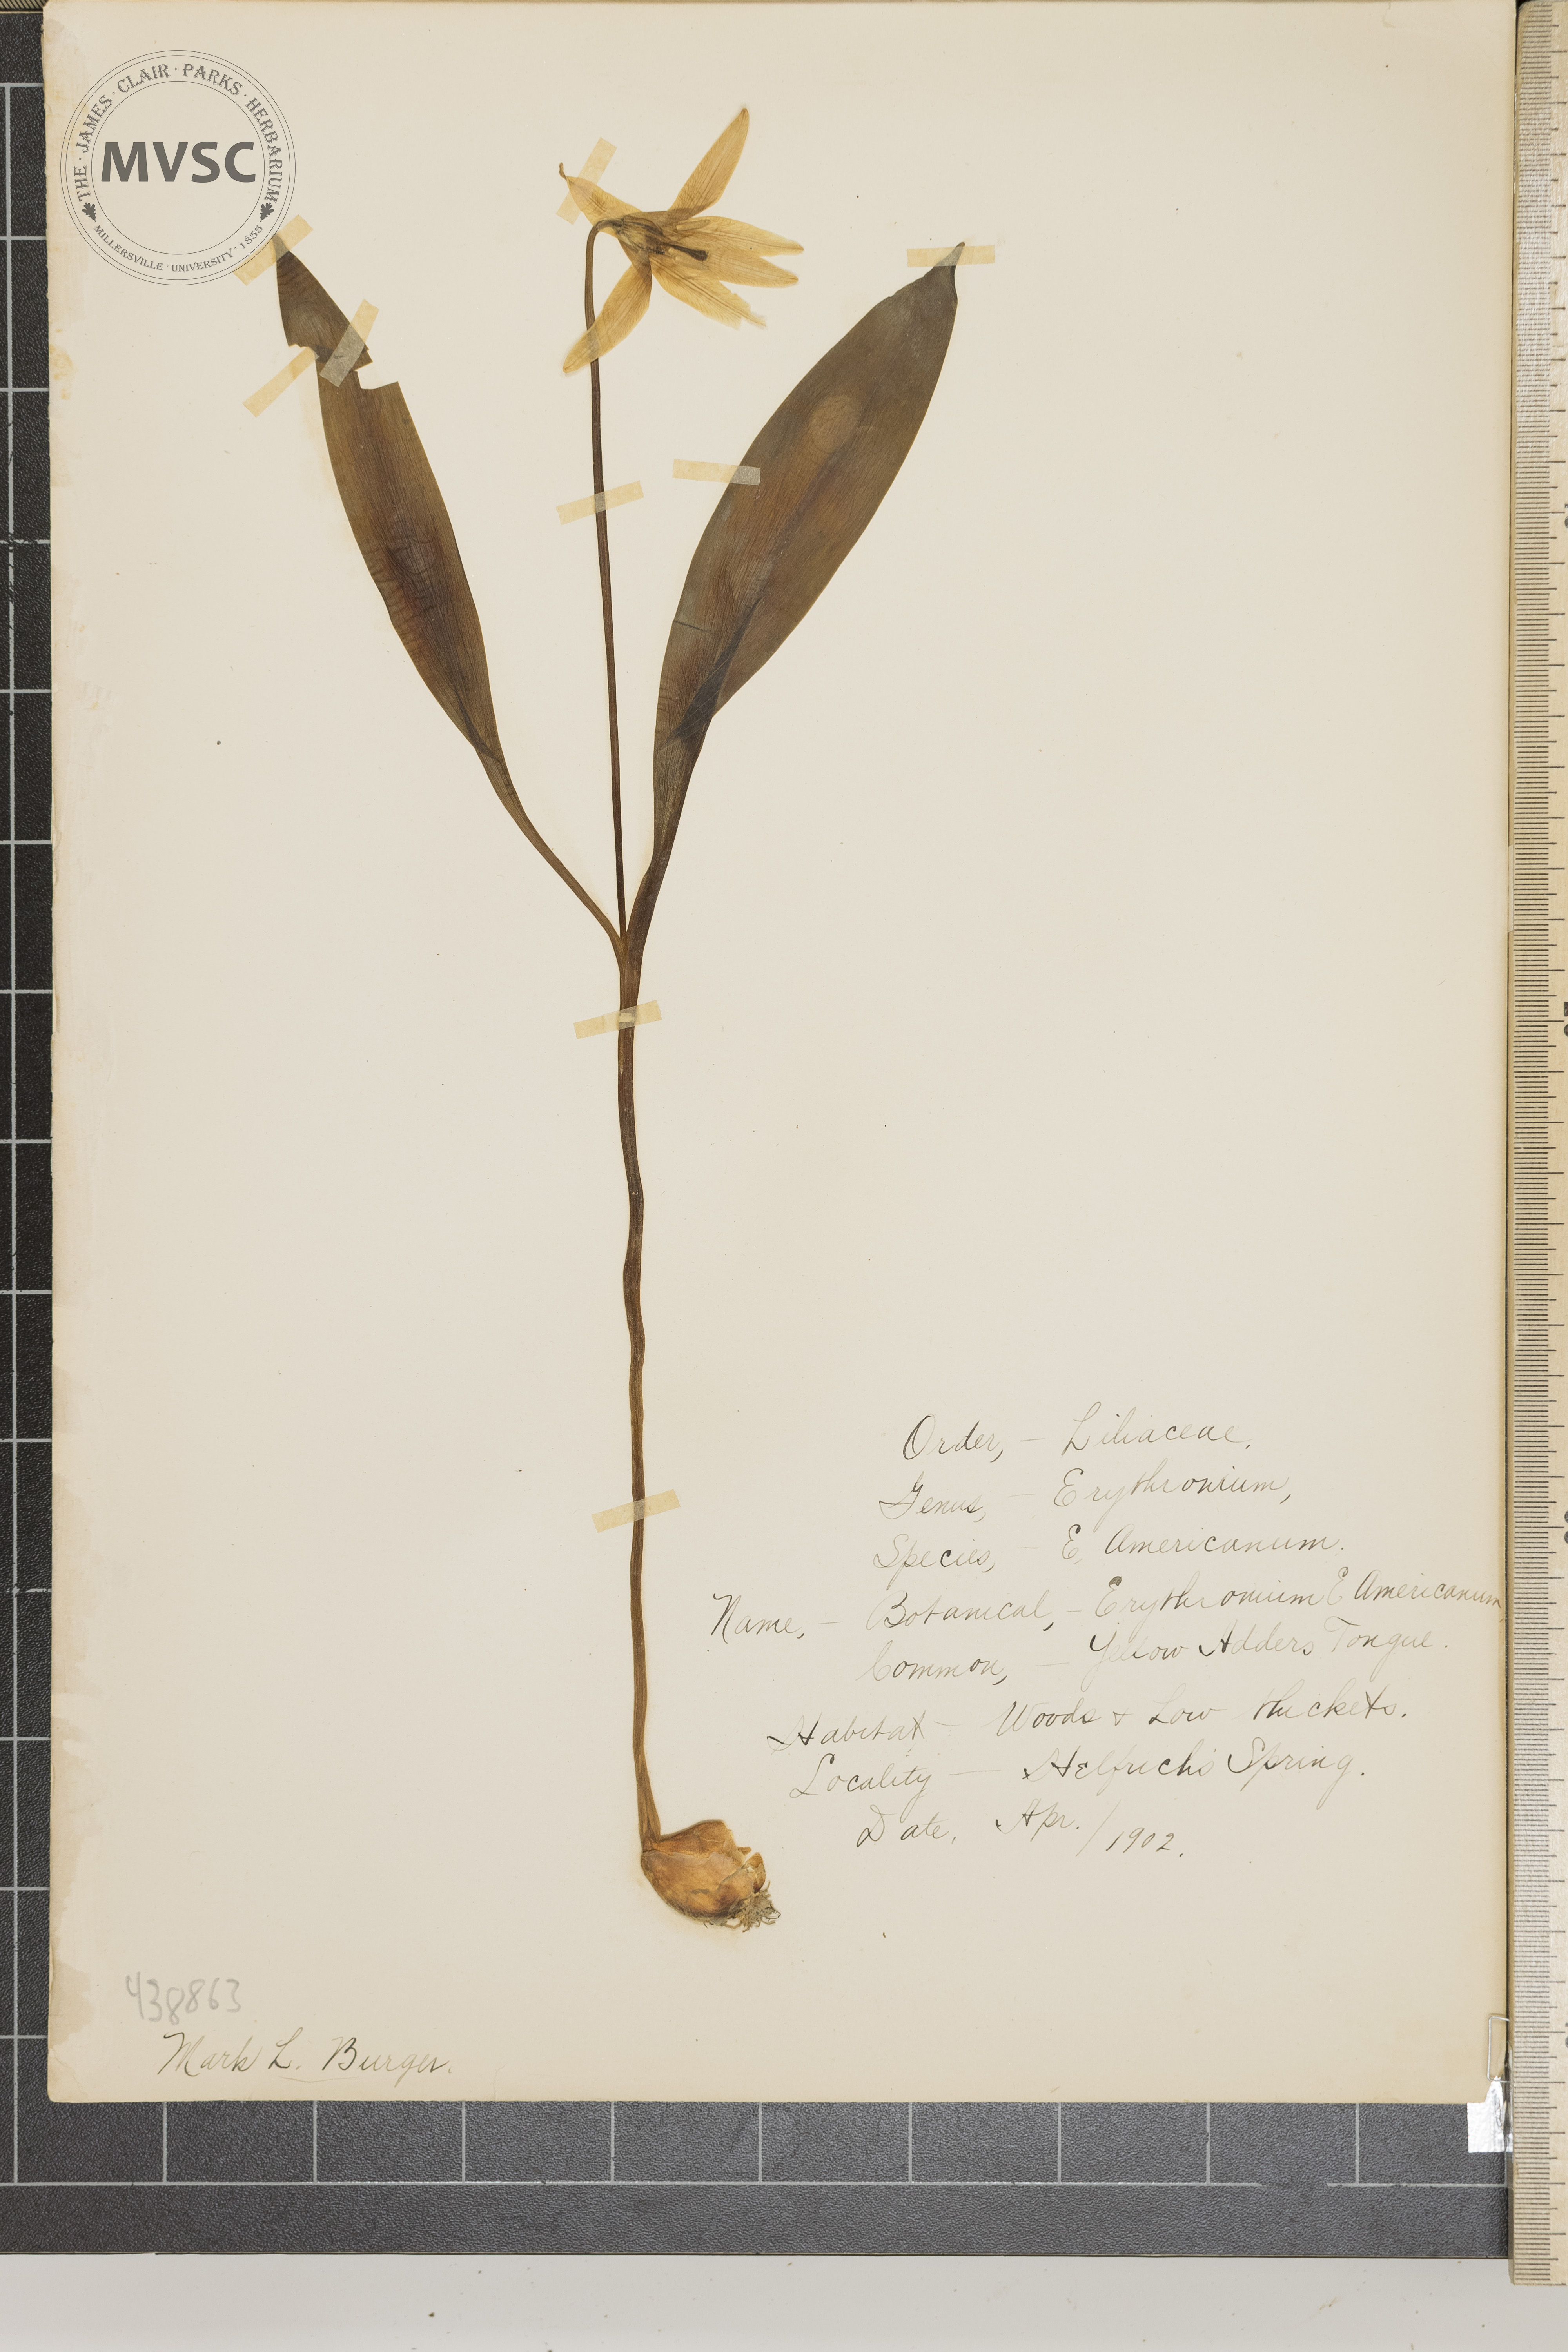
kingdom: Plantae
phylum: Tracheophyta
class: Liliopsida
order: Liliales
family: Liliaceae
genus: Erythronium
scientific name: Erythronium americanum
